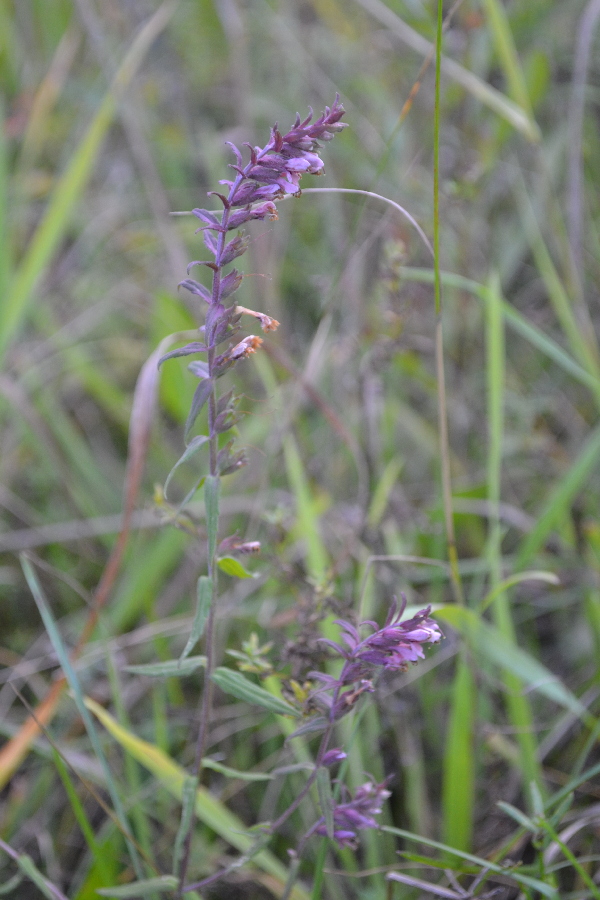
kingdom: Plantae
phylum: Tracheophyta
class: Magnoliopsida
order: Lamiales
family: Orobanchaceae
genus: Odontites
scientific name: Odontites vulgaris
